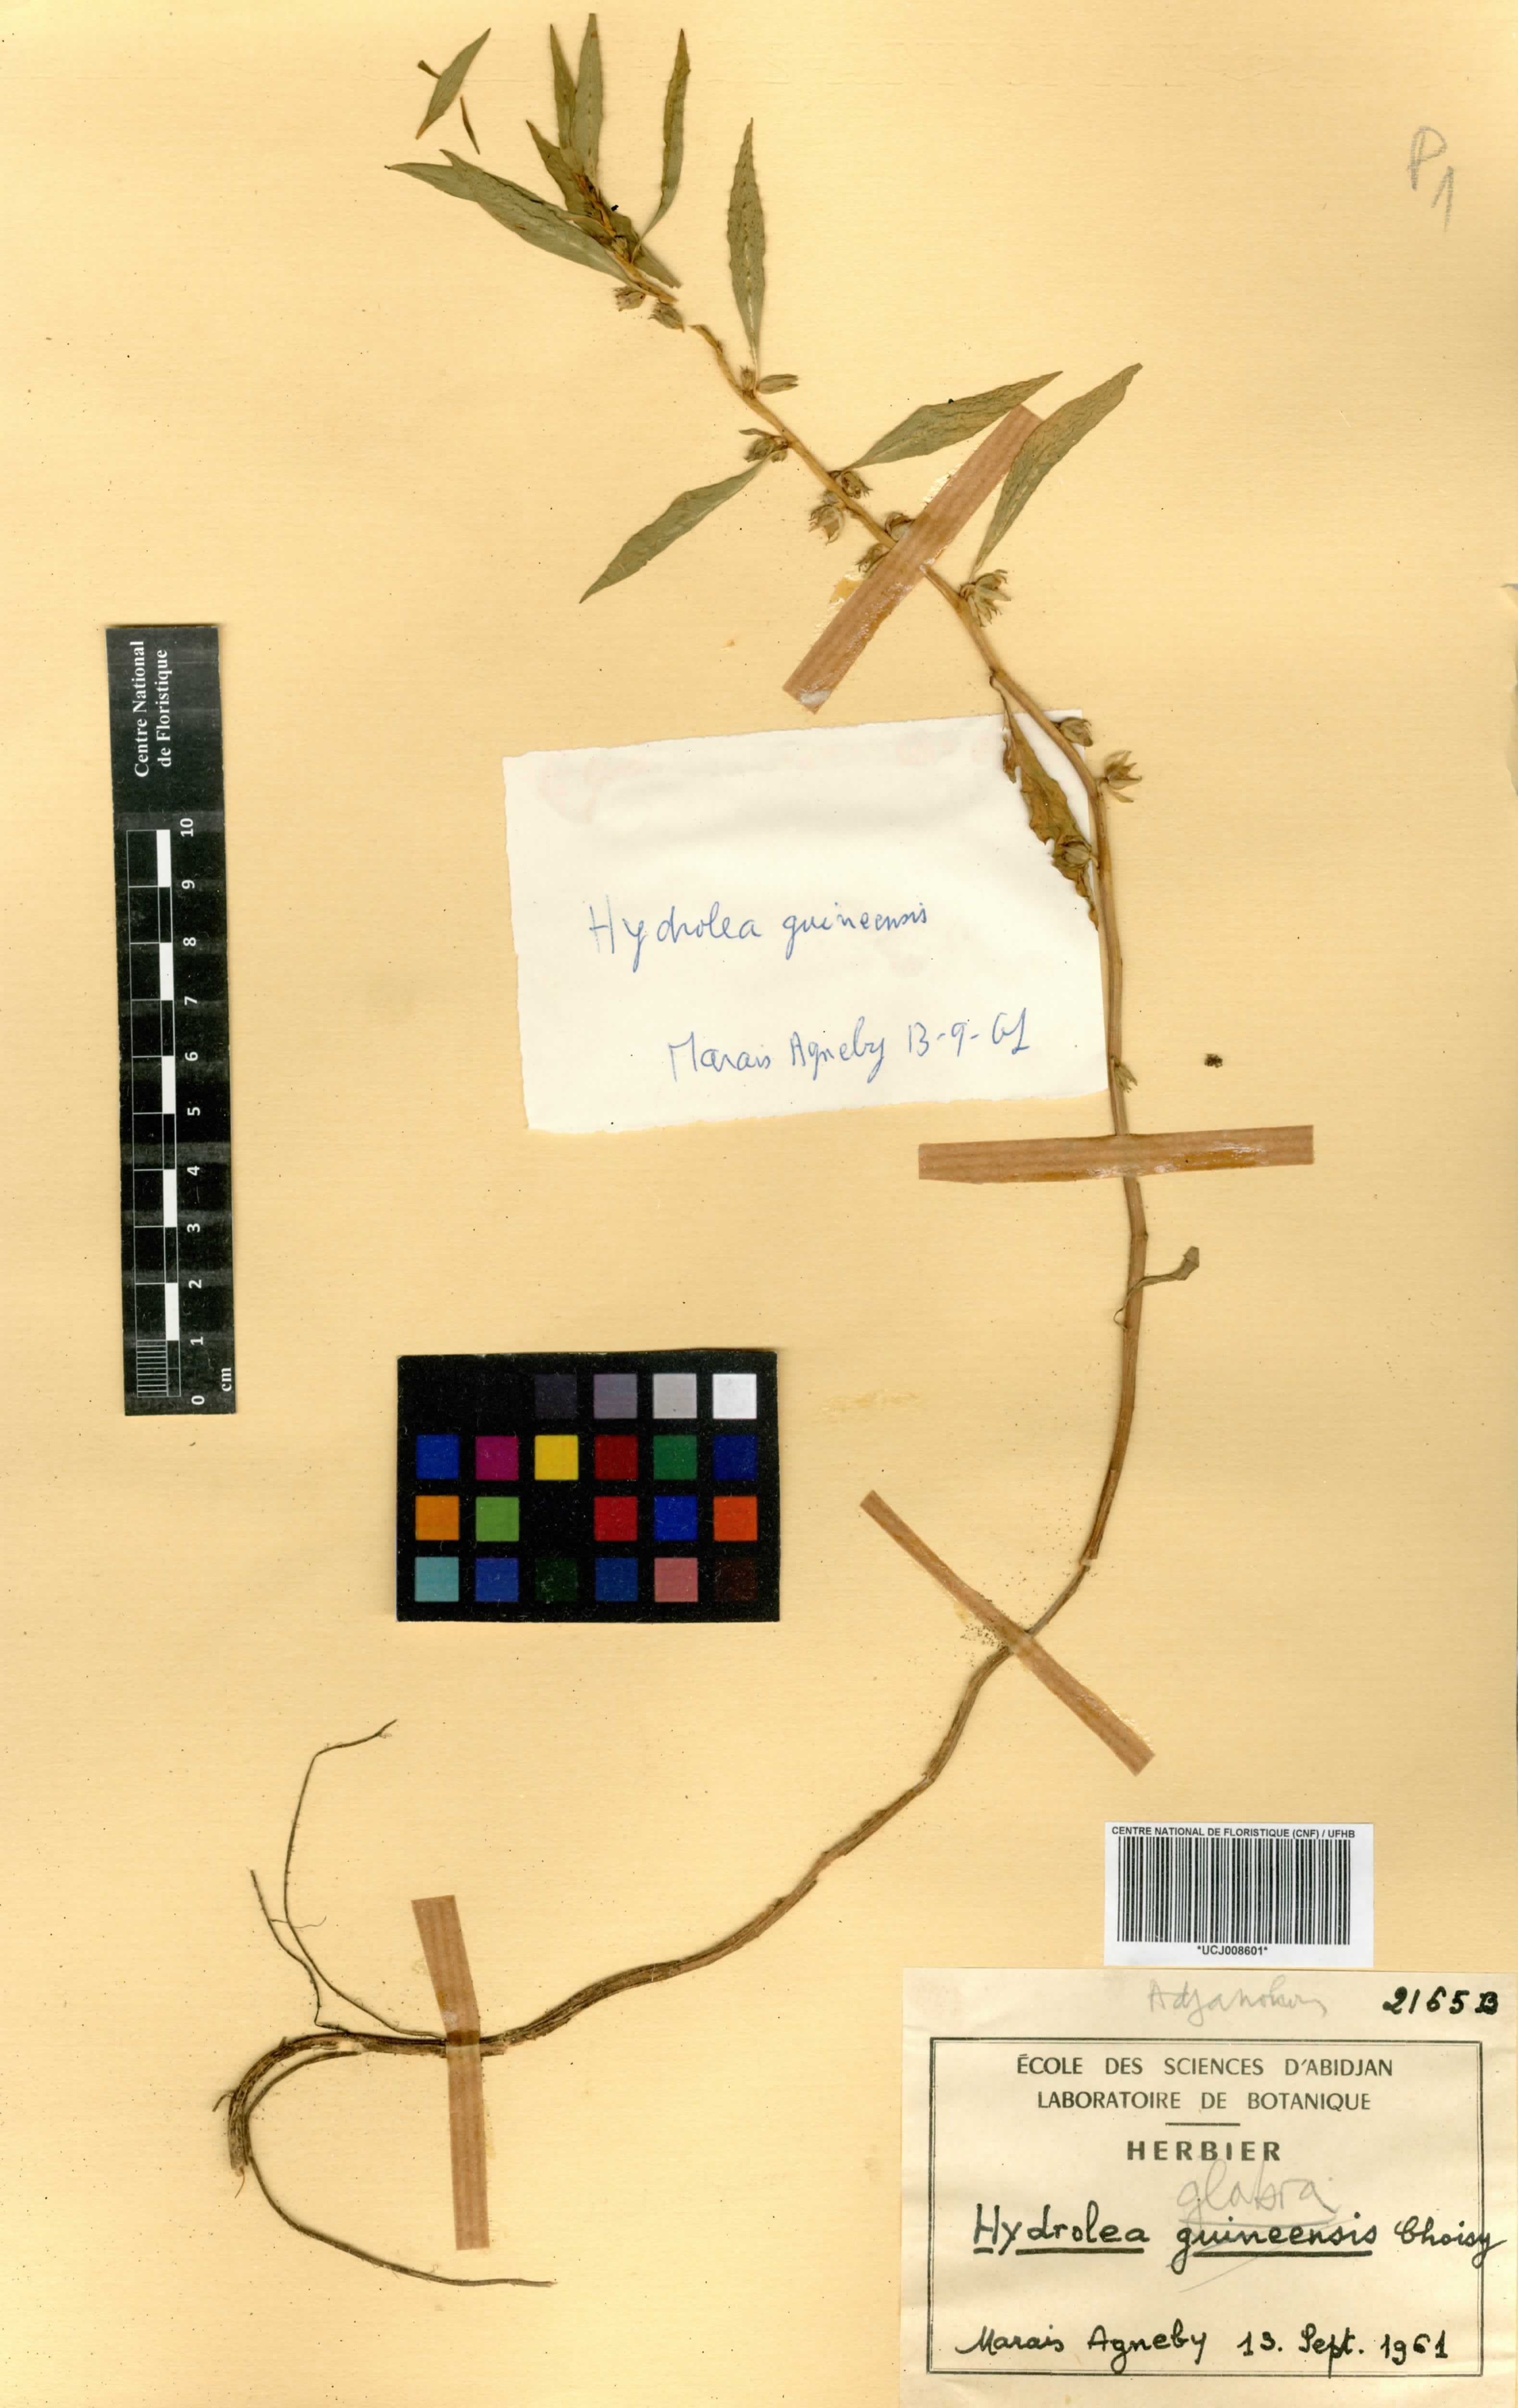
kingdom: Plantae
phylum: Tracheophyta
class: Magnoliopsida
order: Solanales
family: Hydroleaceae
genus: Hydrolea
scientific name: Hydrolea spinosa
